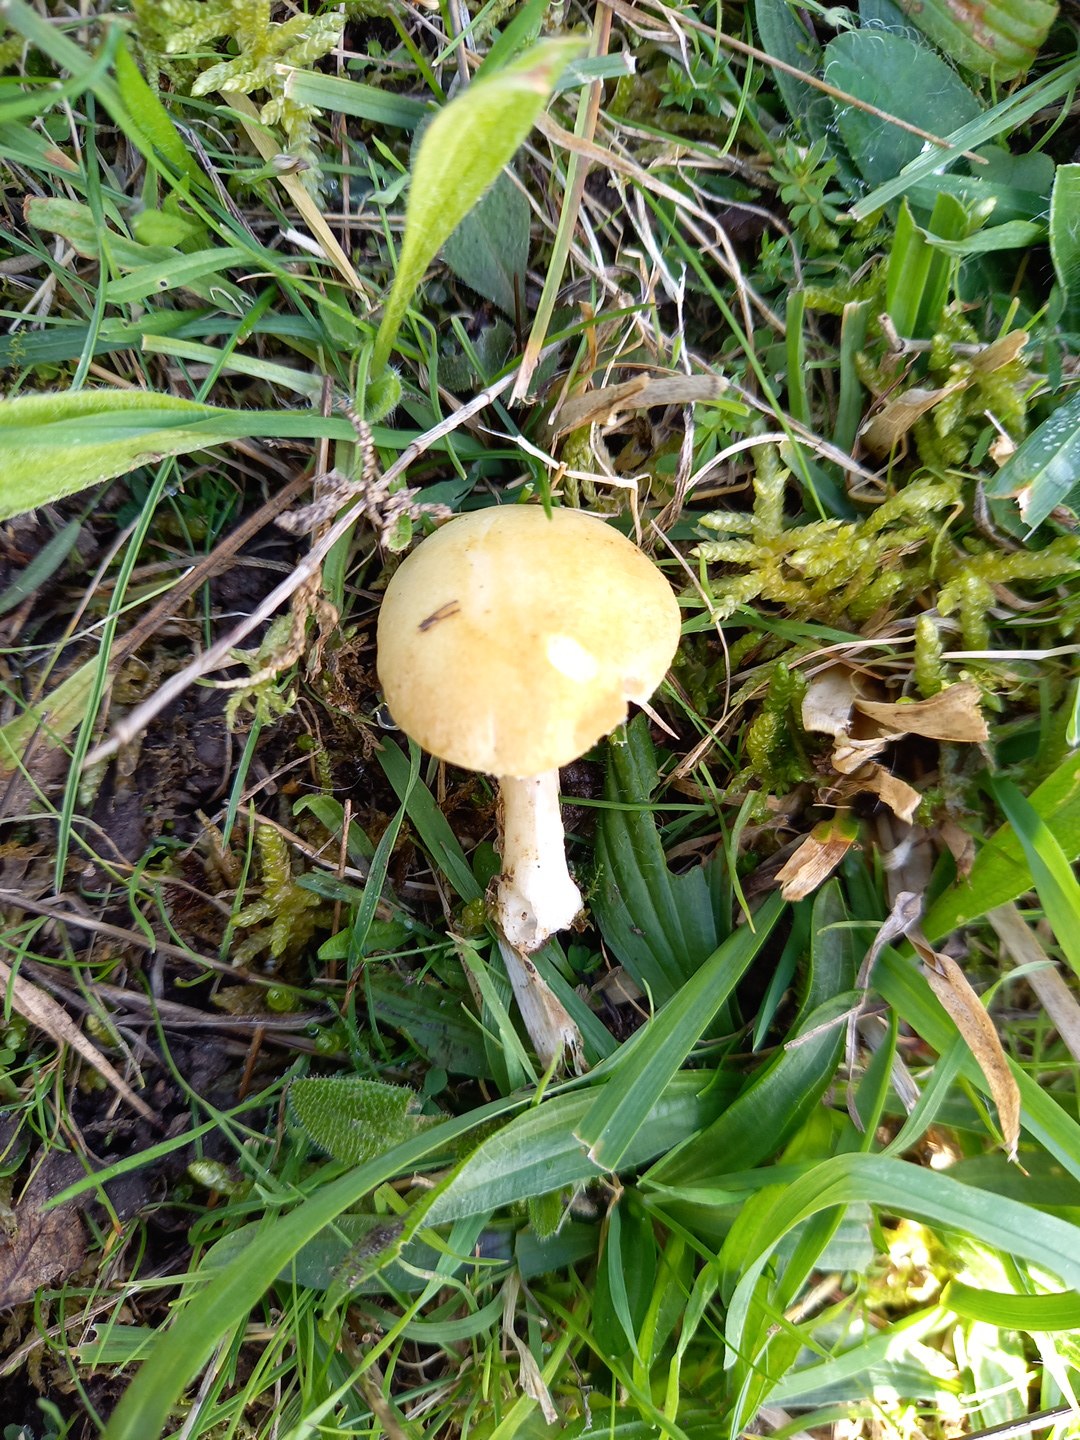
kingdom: Fungi
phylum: Basidiomycota
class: Agaricomycetes
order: Agaricales
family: Hymenogastraceae
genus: Psilocybe
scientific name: Psilocybe coronilla
